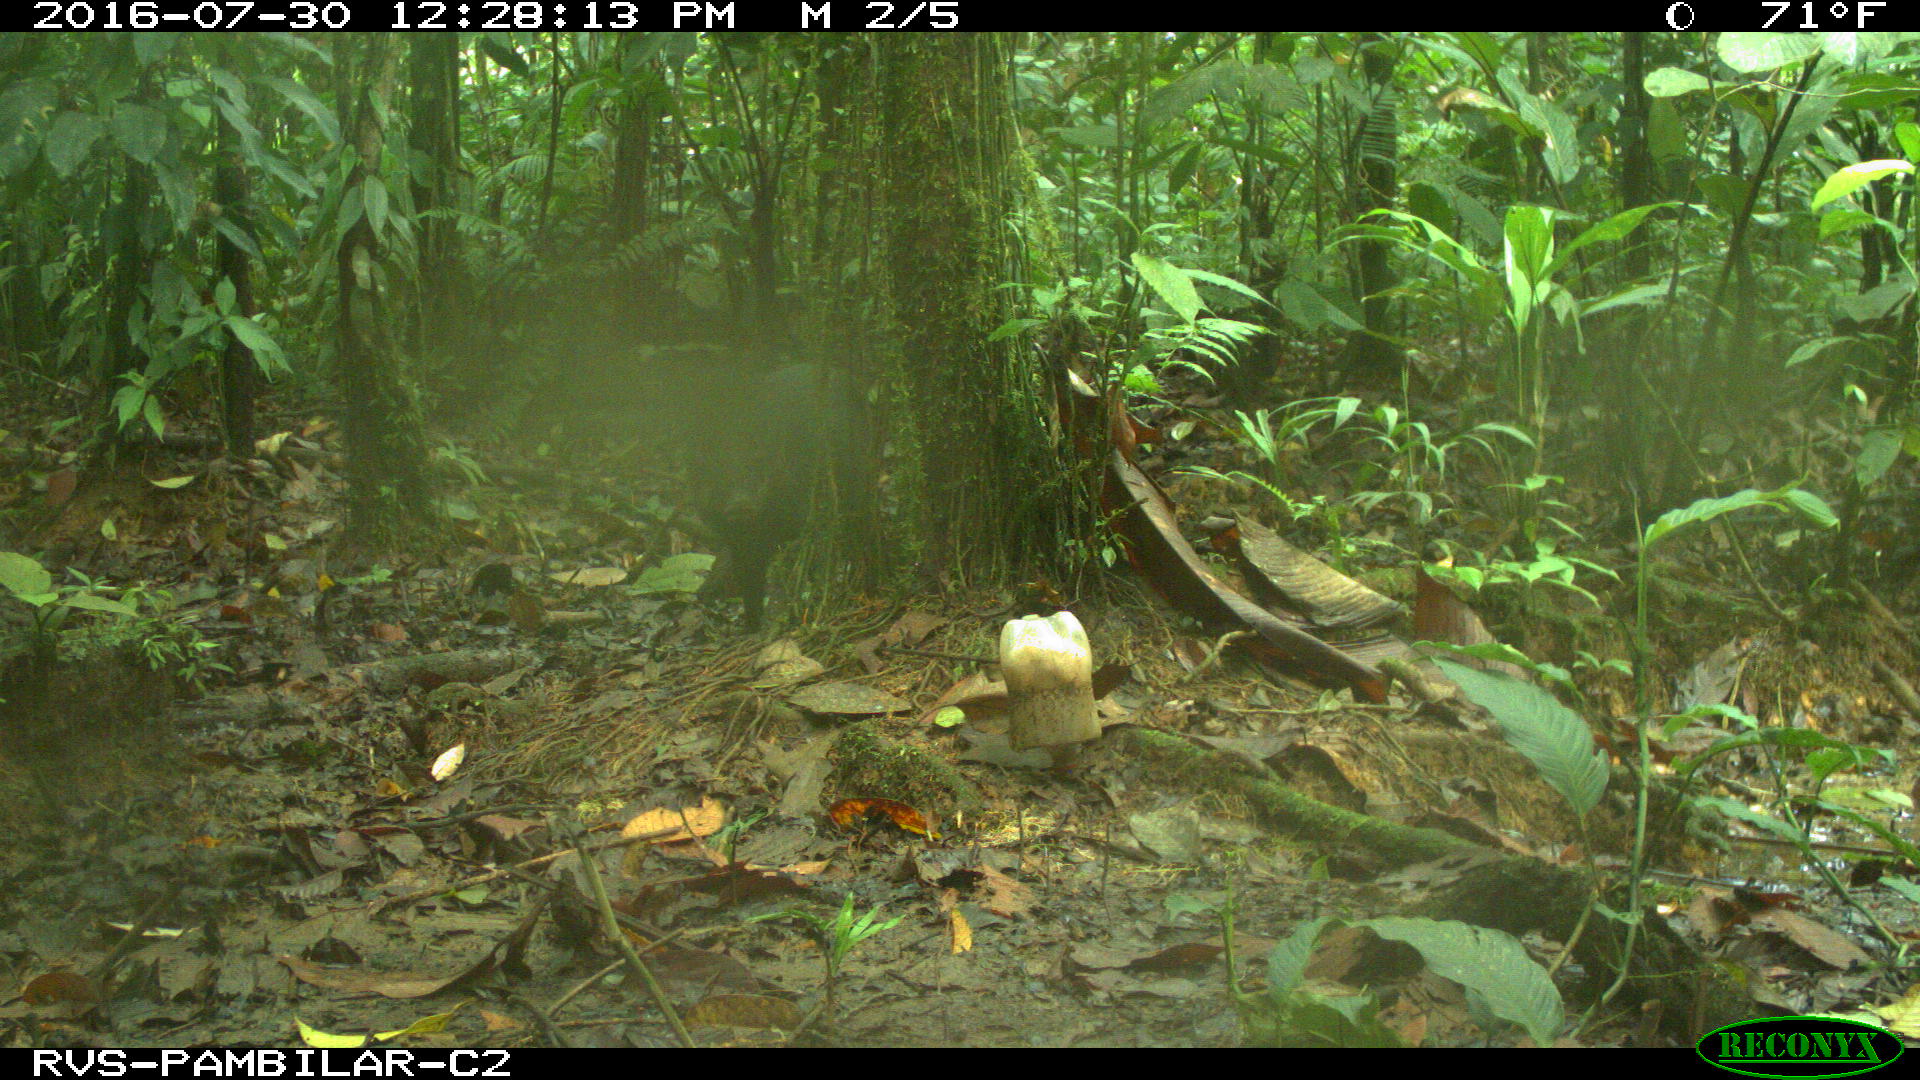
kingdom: Animalia
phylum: Chordata
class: Mammalia
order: Artiodactyla
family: Tayassuidae
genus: Pecari
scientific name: Pecari tajacu
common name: Collared peccary
